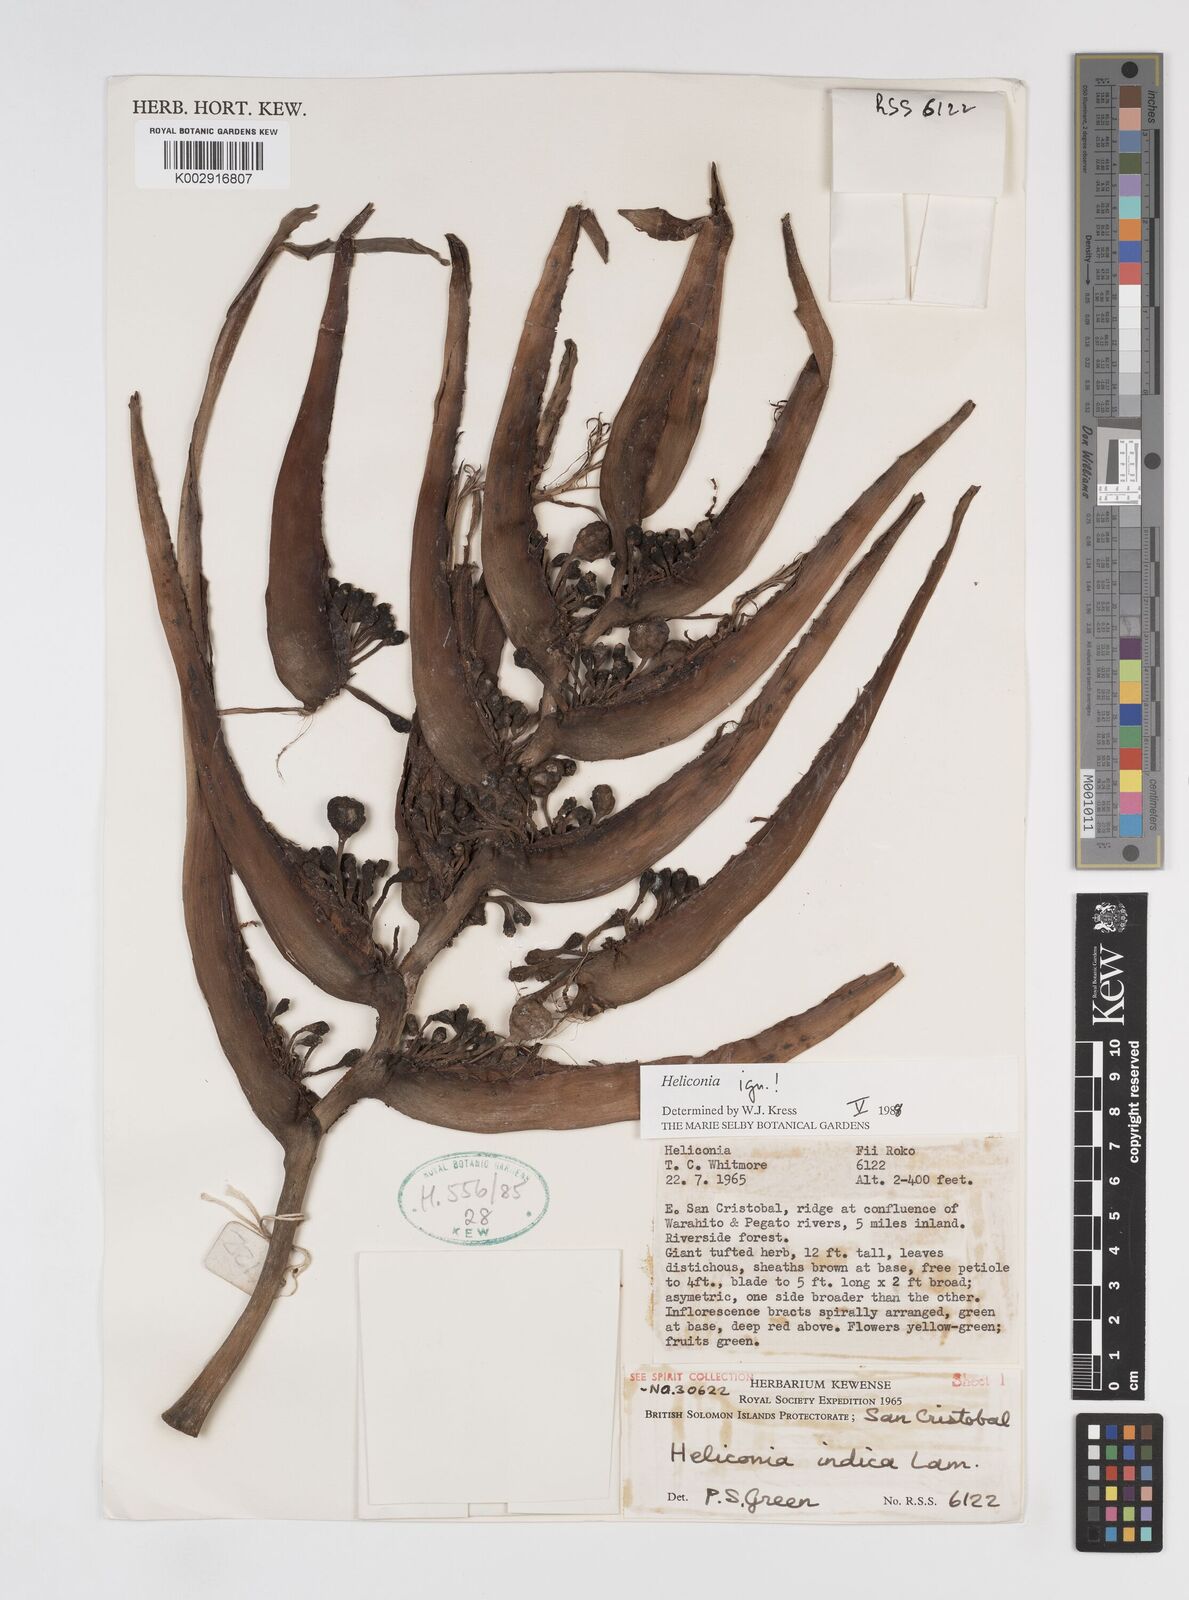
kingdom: Plantae
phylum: Tracheophyta
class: Liliopsida
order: Zingiberales
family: Heliconiaceae
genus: Heliconia
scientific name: Heliconia
